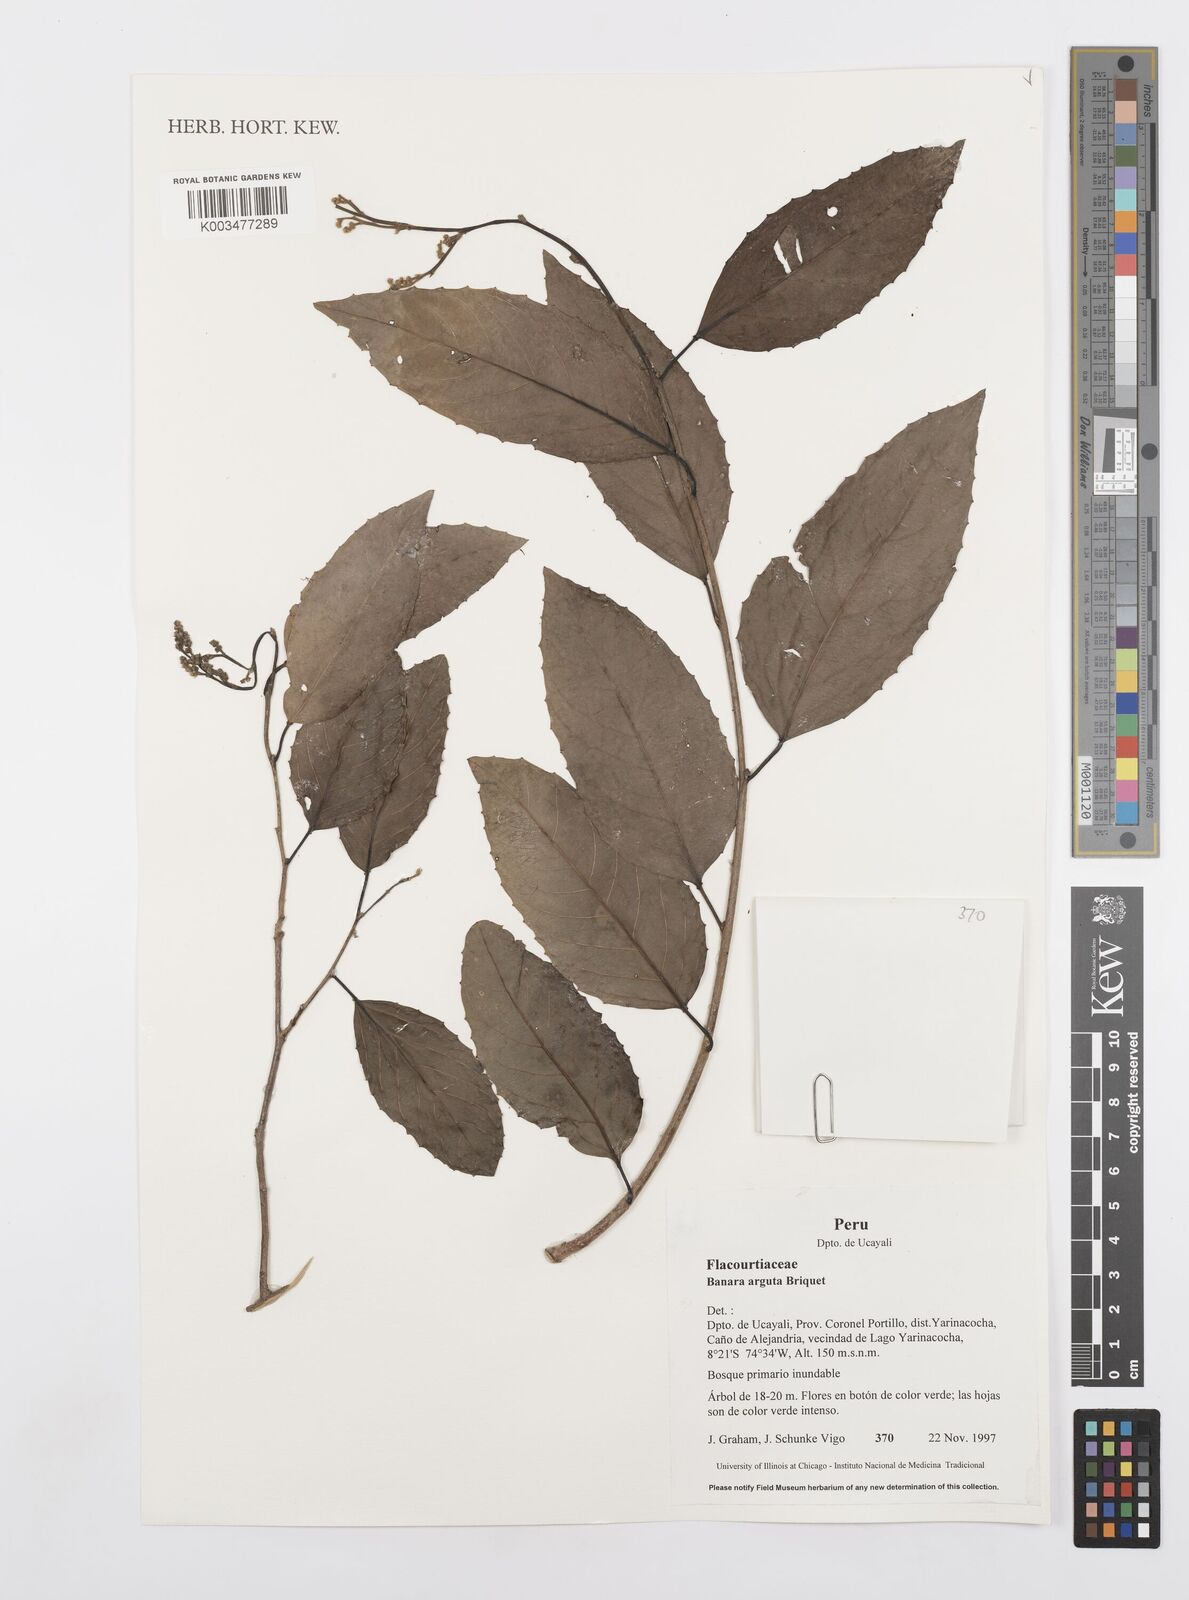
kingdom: Plantae
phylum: Tracheophyta
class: Magnoliopsida
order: Malpighiales
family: Salicaceae
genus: Banara
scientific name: Banara arguta
